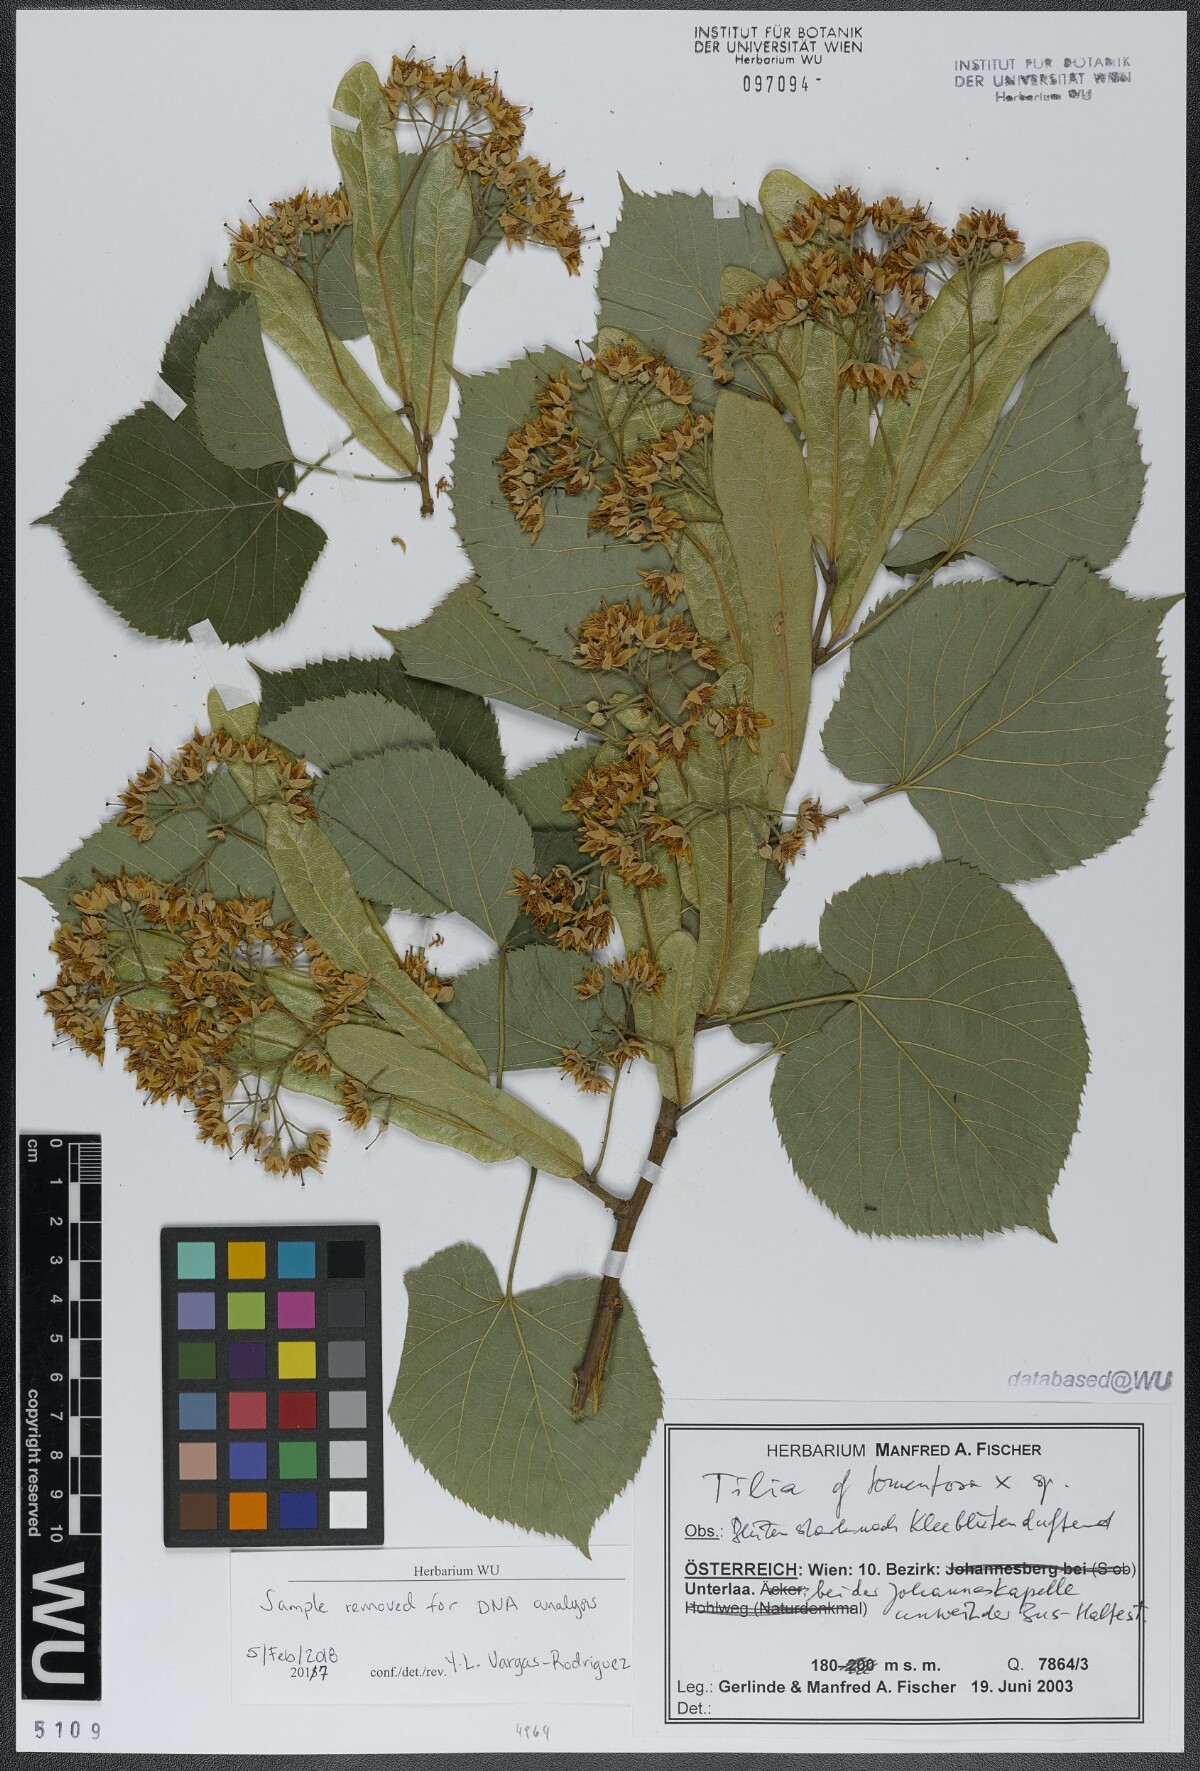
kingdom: Plantae
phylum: Tracheophyta
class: Magnoliopsida
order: Malvales
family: Malvaceae
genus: Tilia
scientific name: Tilia tomentosa
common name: Silver lime
